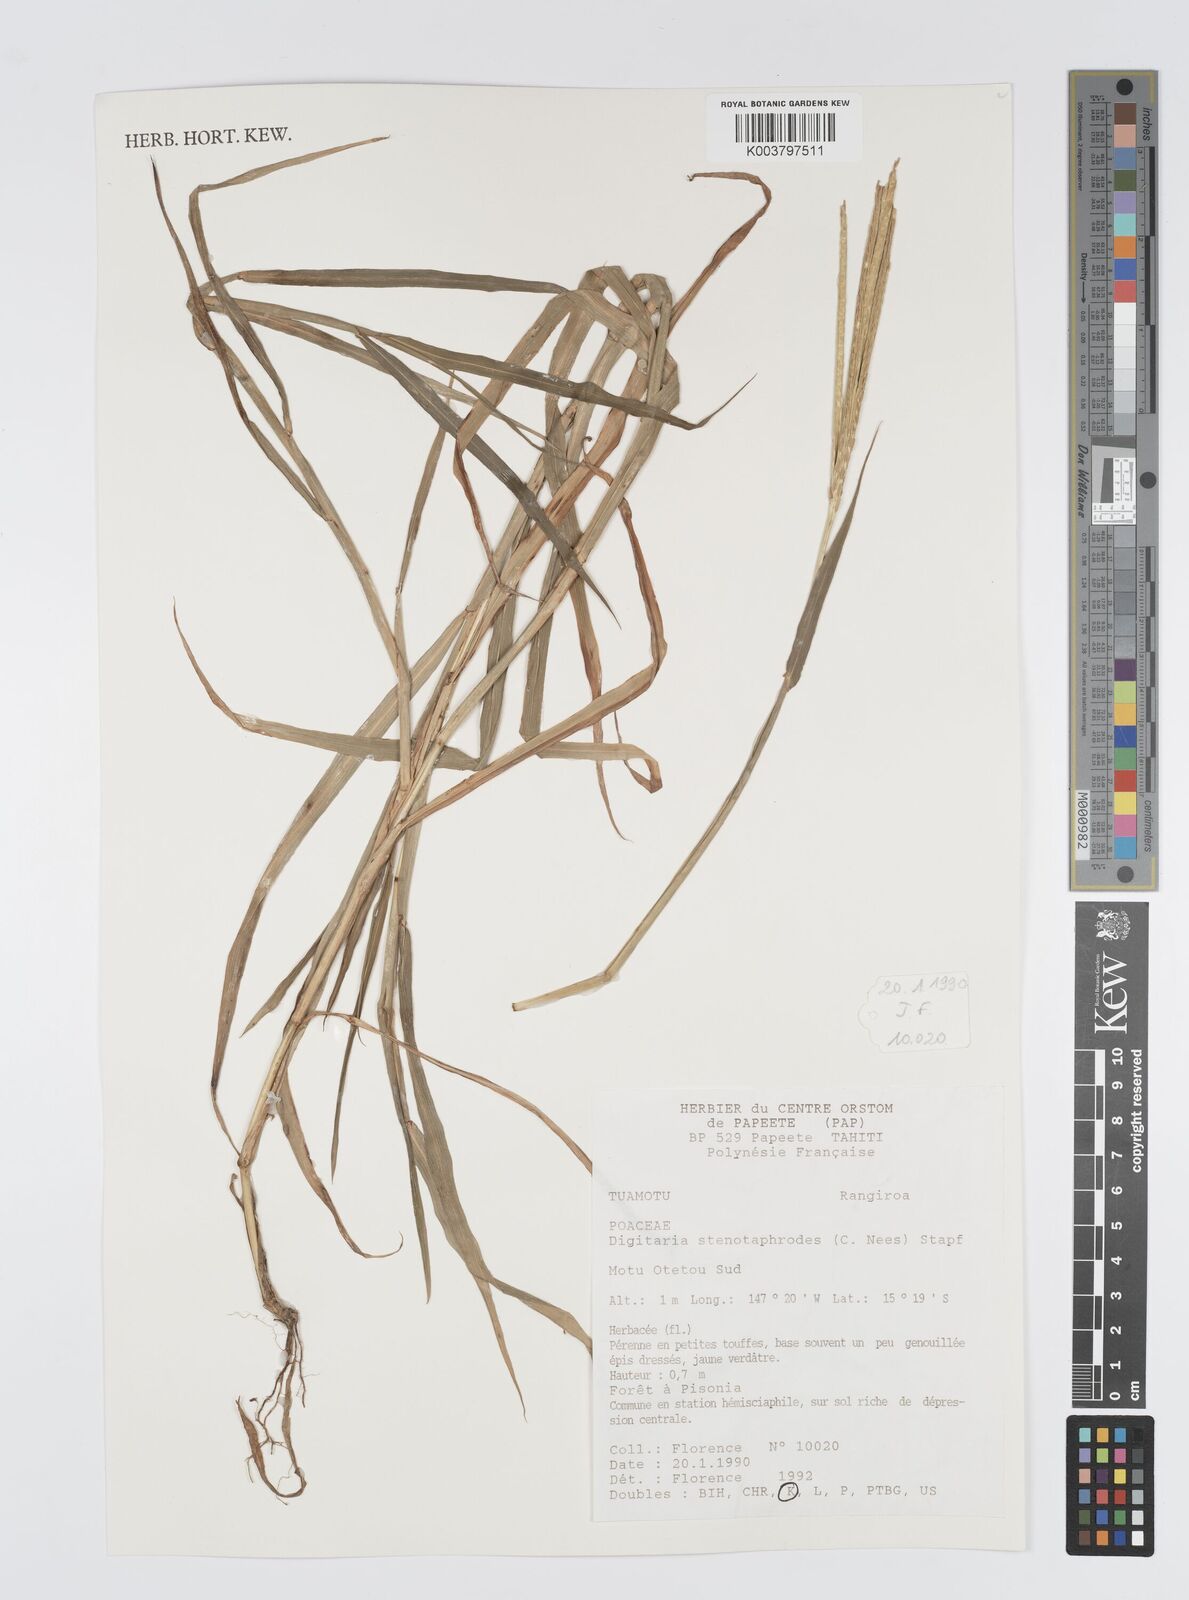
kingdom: Plantae
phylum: Tracheophyta
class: Liliopsida
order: Poales
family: Poaceae
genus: Digitaria
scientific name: Digitaria stenotaphrodes
